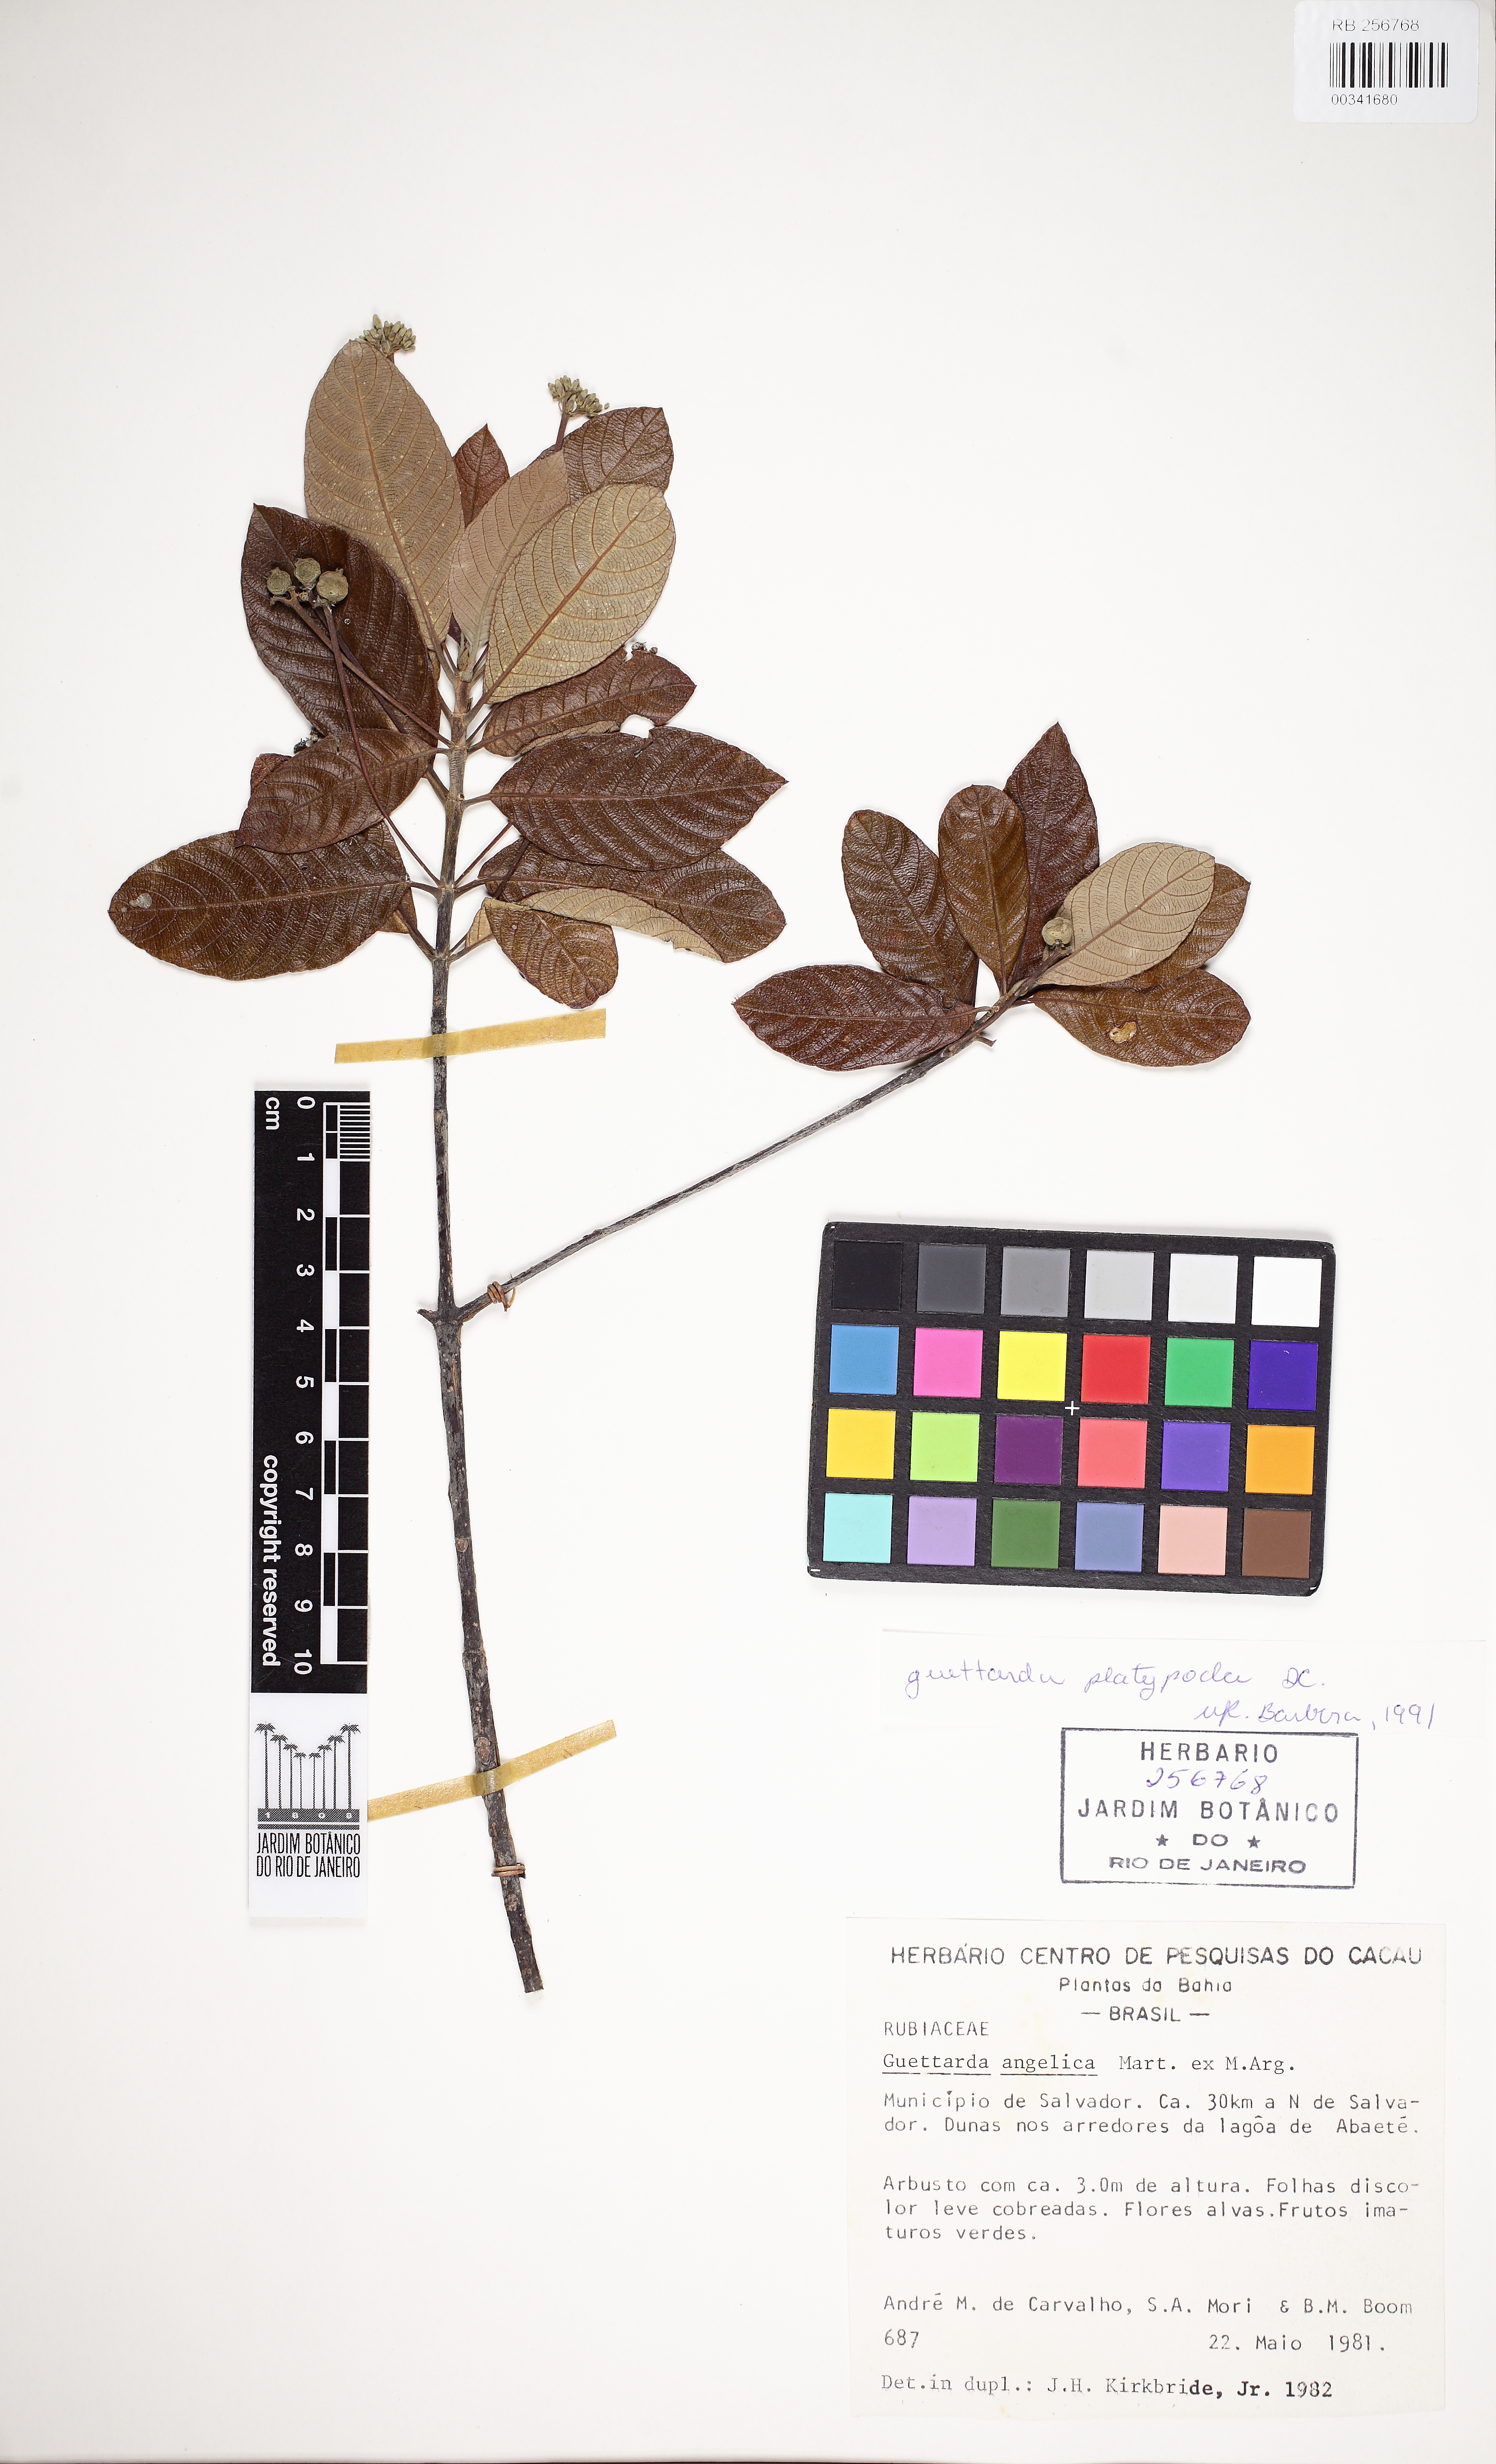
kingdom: Plantae
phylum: Tracheophyta
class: Magnoliopsida
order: Gentianales
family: Rubiaceae
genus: Guettarda
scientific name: Guettarda platypoda
